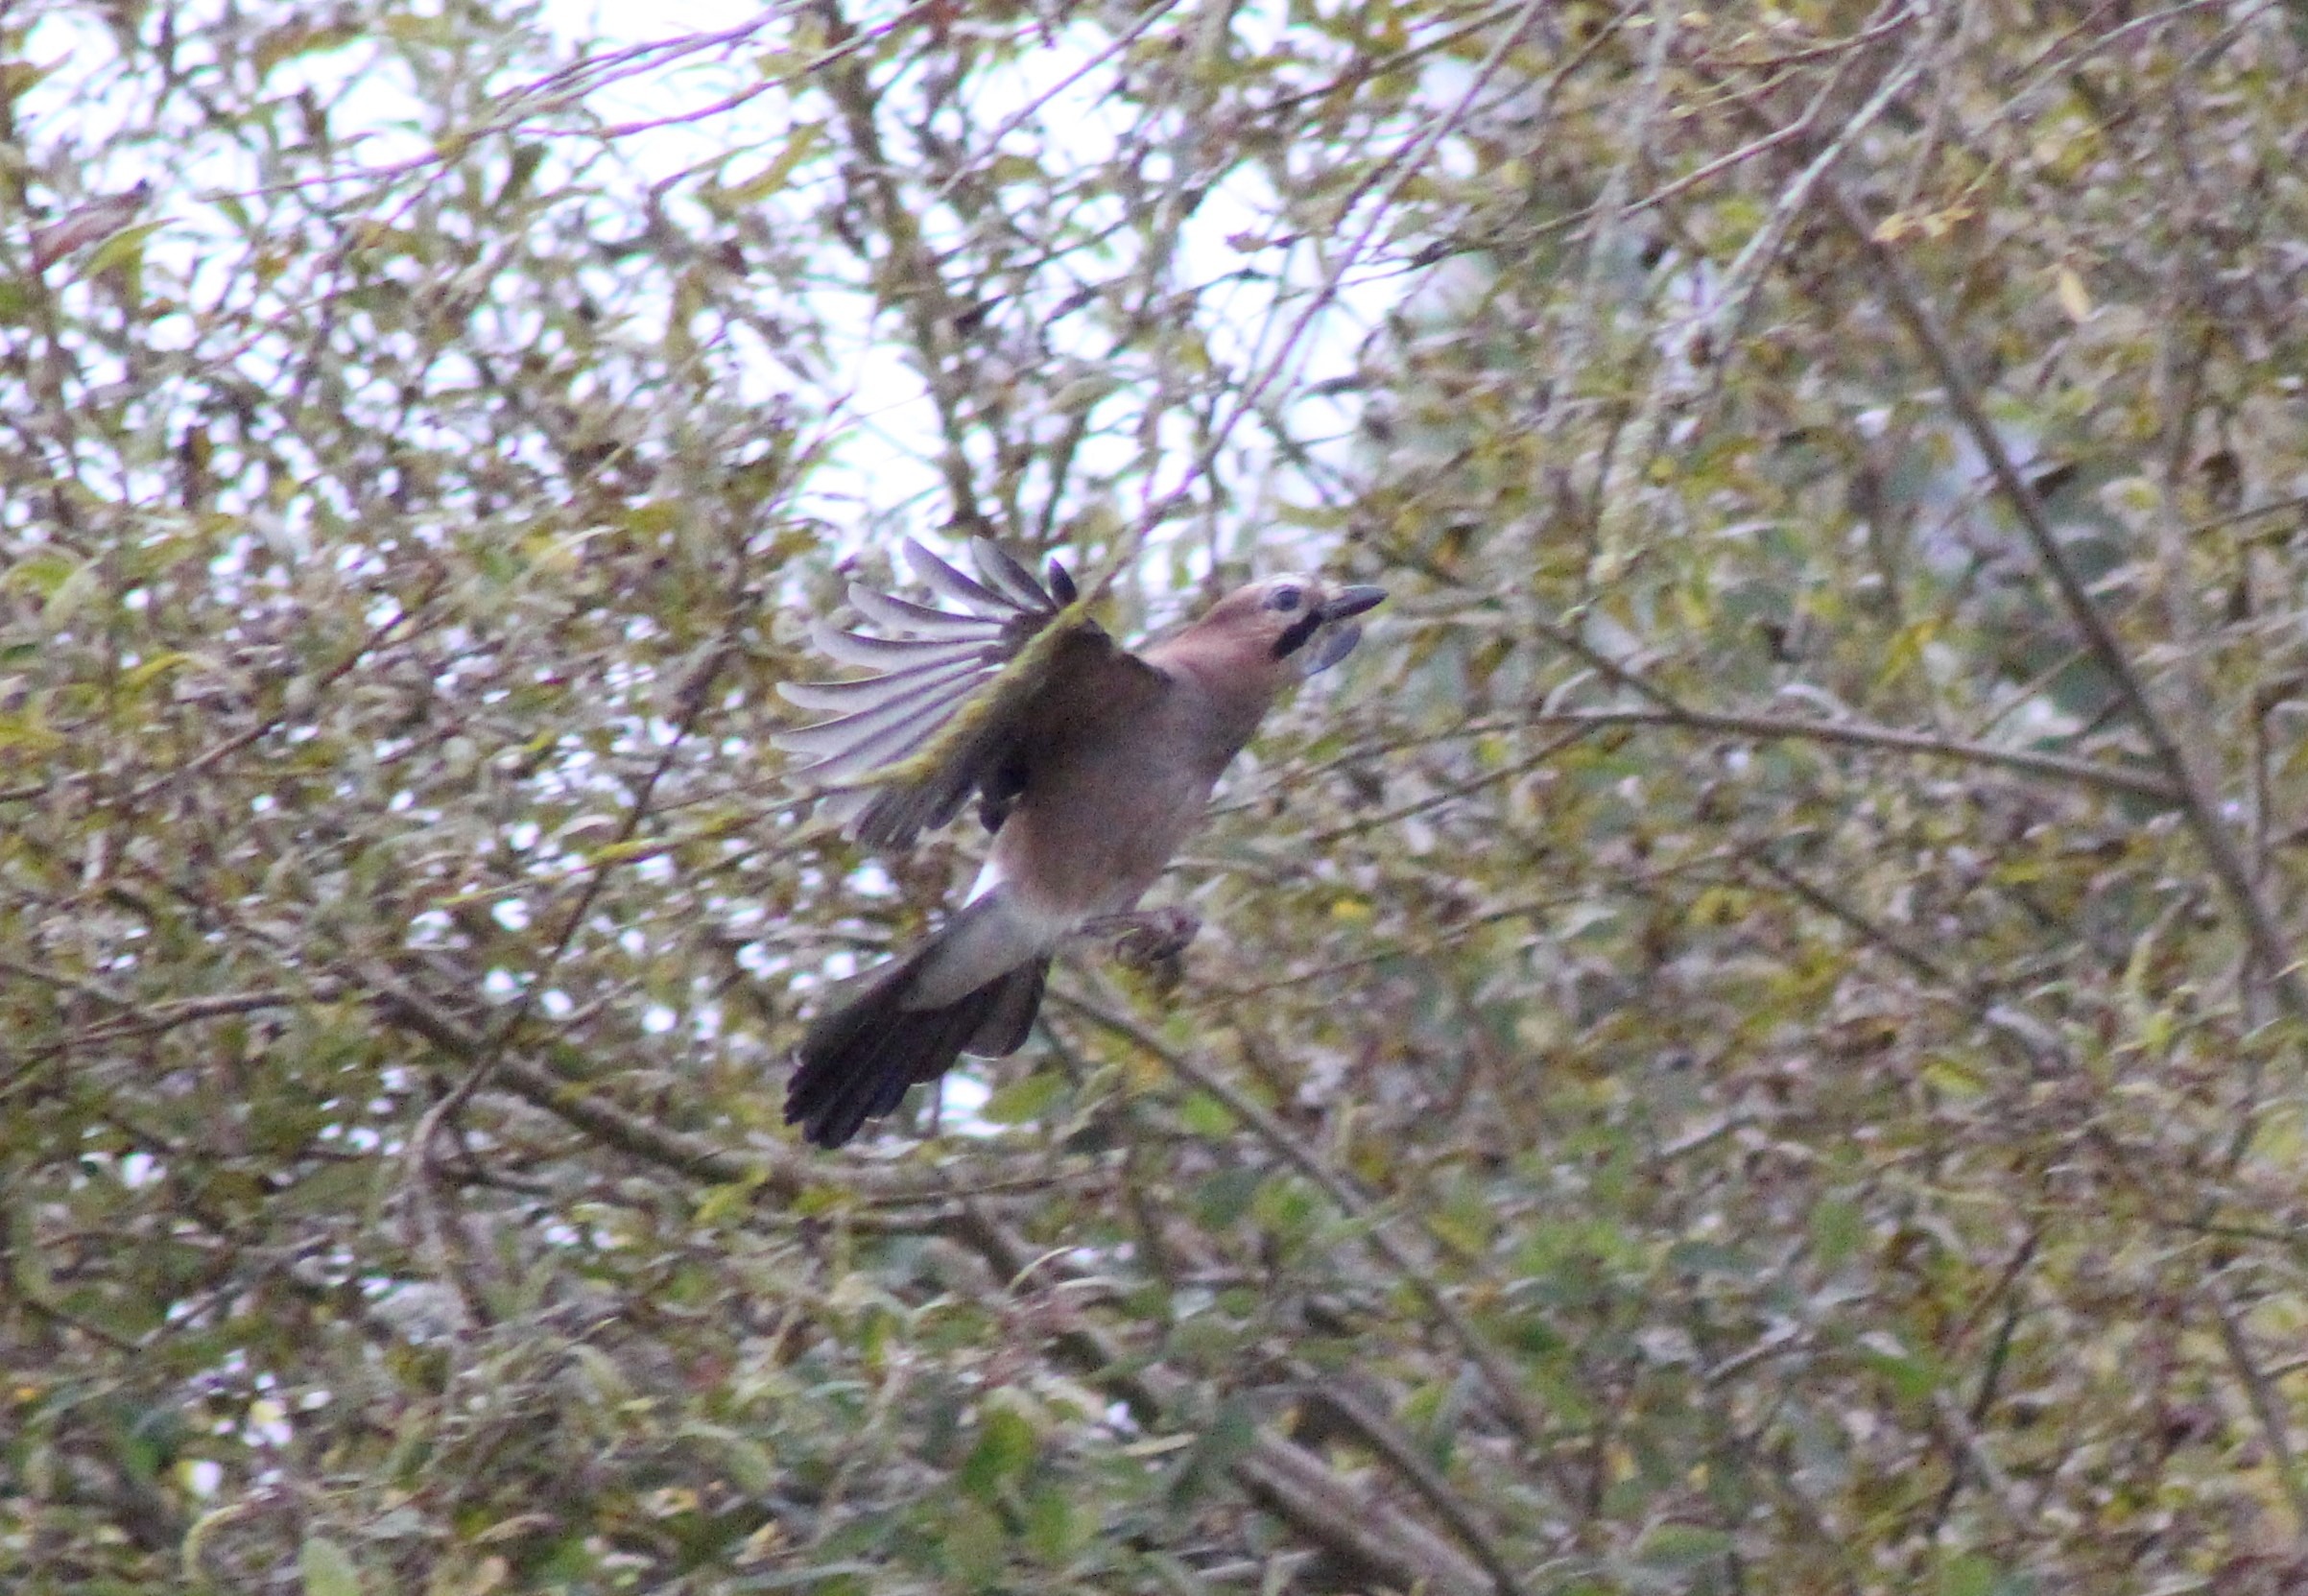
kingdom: Animalia
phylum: Chordata
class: Aves
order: Passeriformes
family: Corvidae
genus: Garrulus
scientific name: Garrulus glandarius
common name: Skovskade
